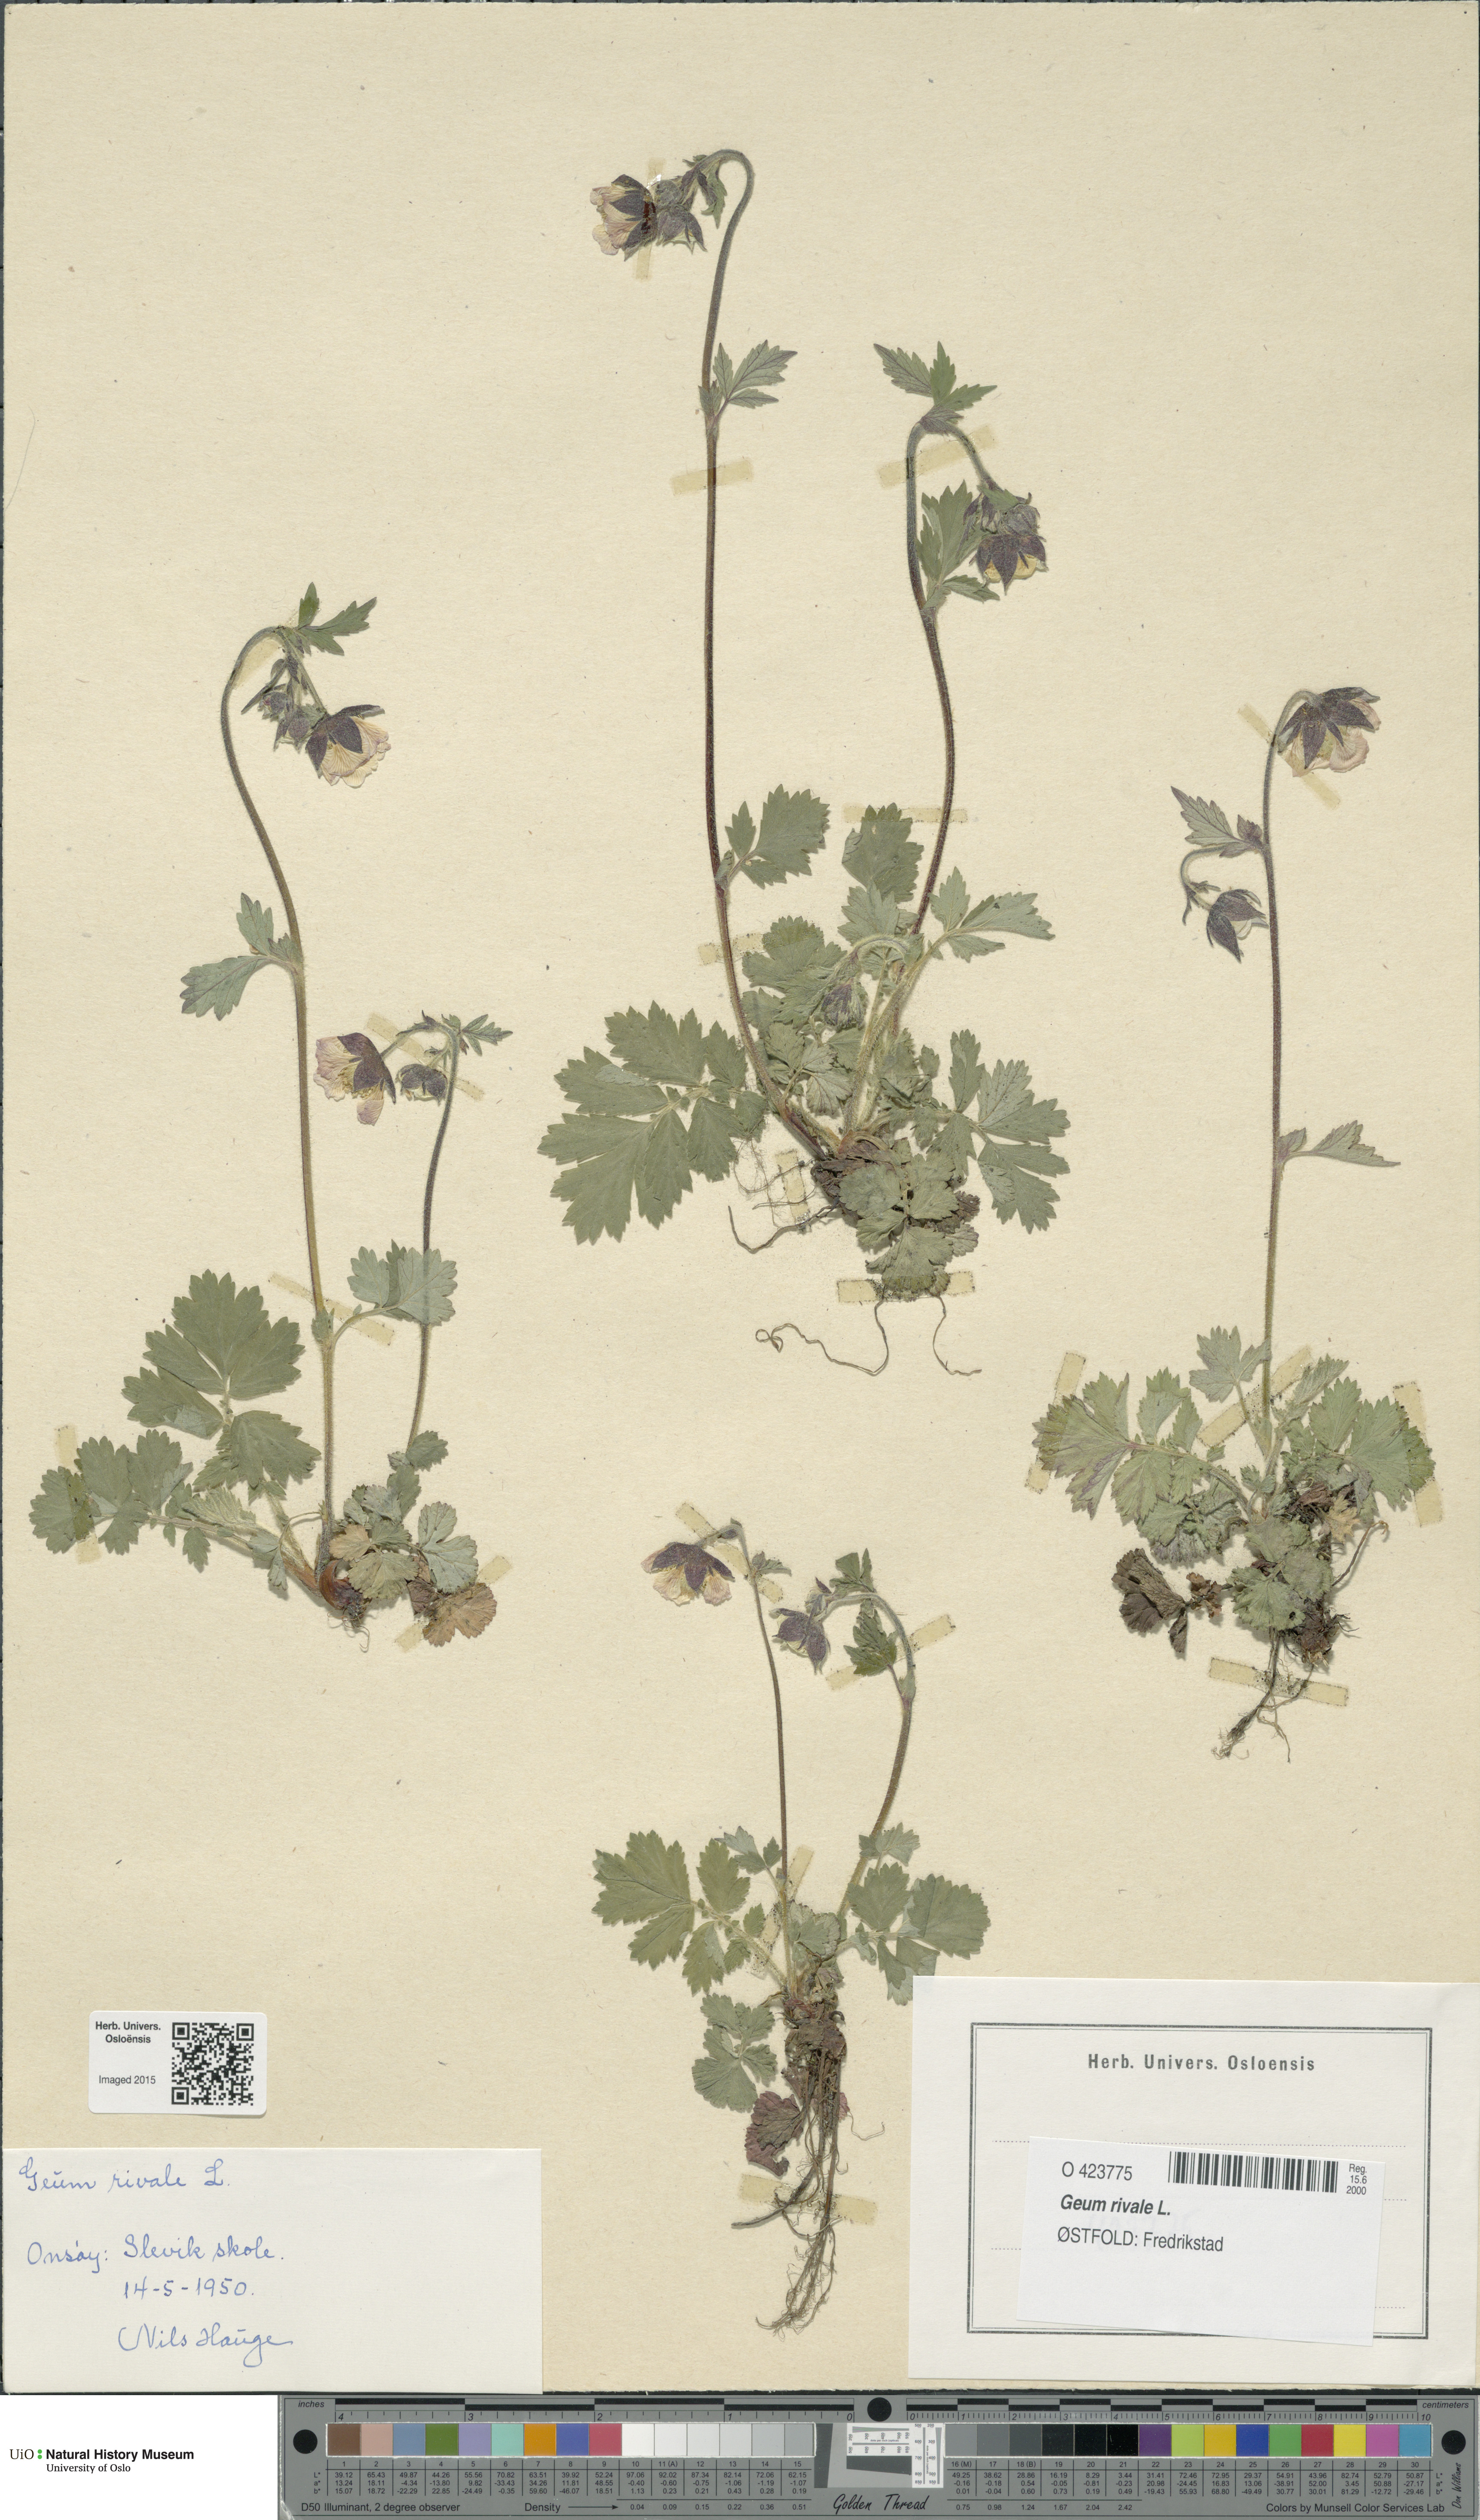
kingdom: Plantae
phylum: Tracheophyta
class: Magnoliopsida
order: Rosales
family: Rosaceae
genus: Geum
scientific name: Geum rivale
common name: Water avens
